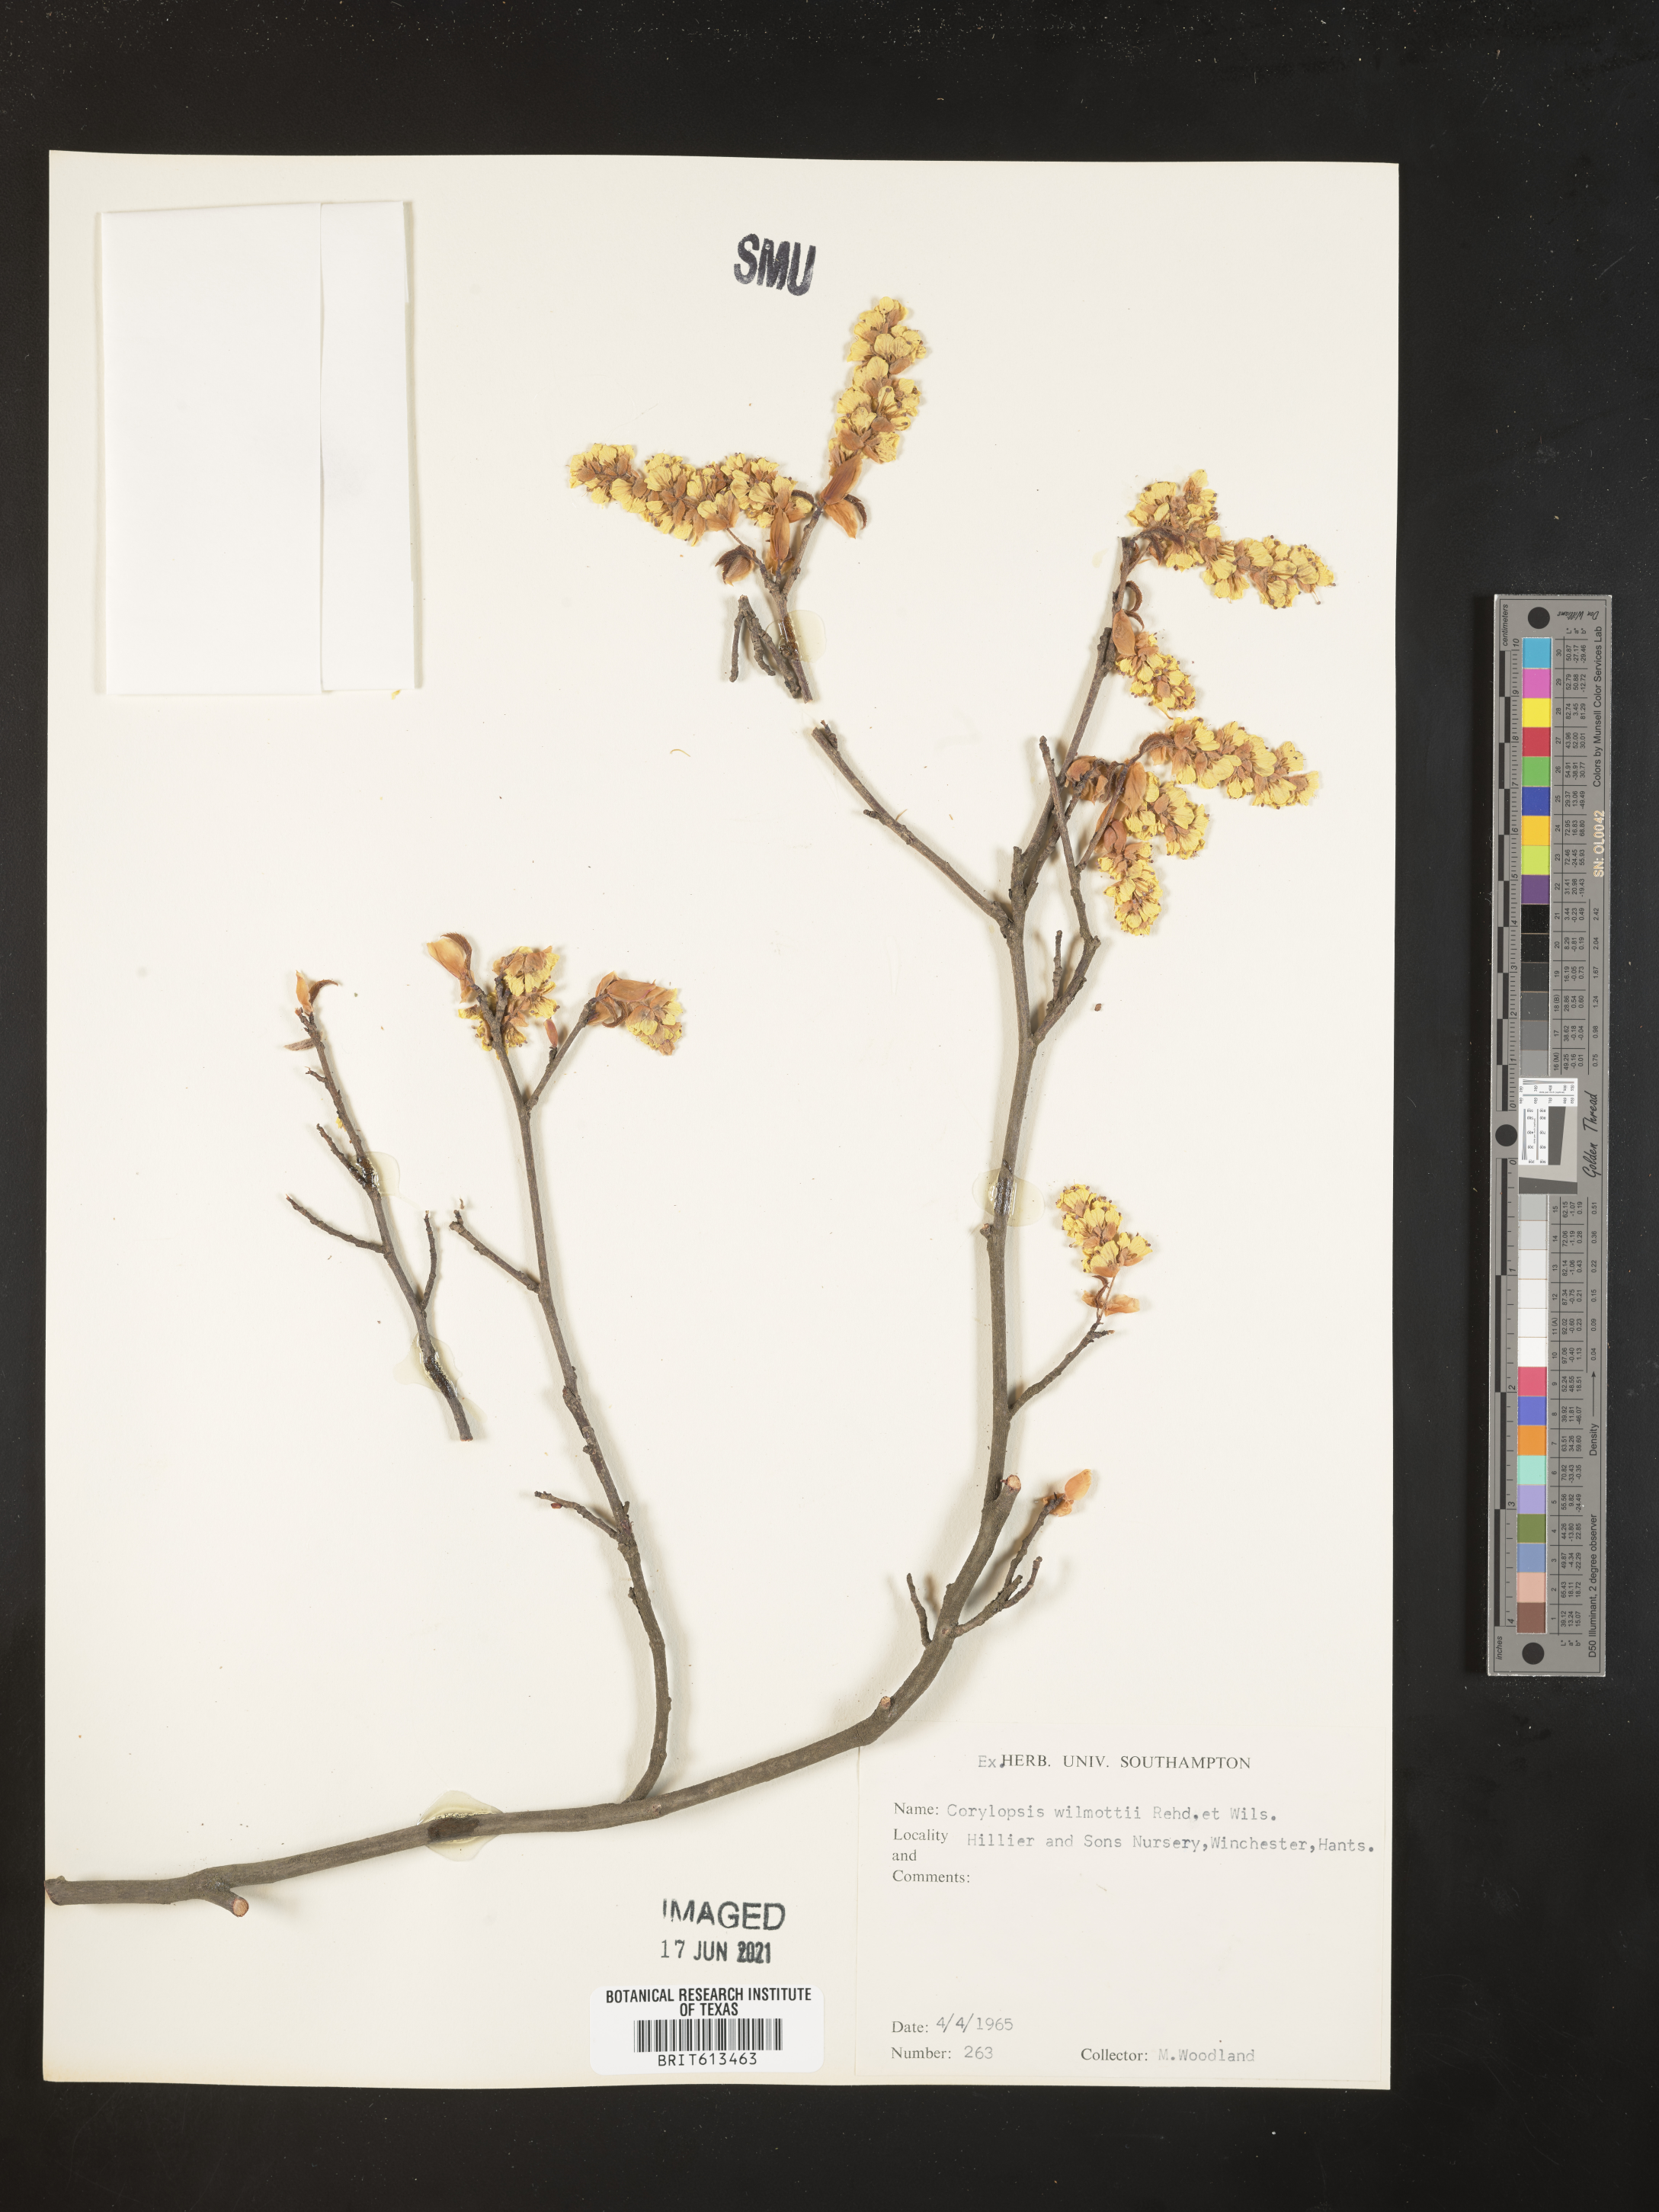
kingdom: Plantae
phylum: Tracheophyta
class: Magnoliopsida
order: Saxifragales
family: Hamamelidaceae
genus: Corylopsis
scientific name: Corylopsis willmottiae
